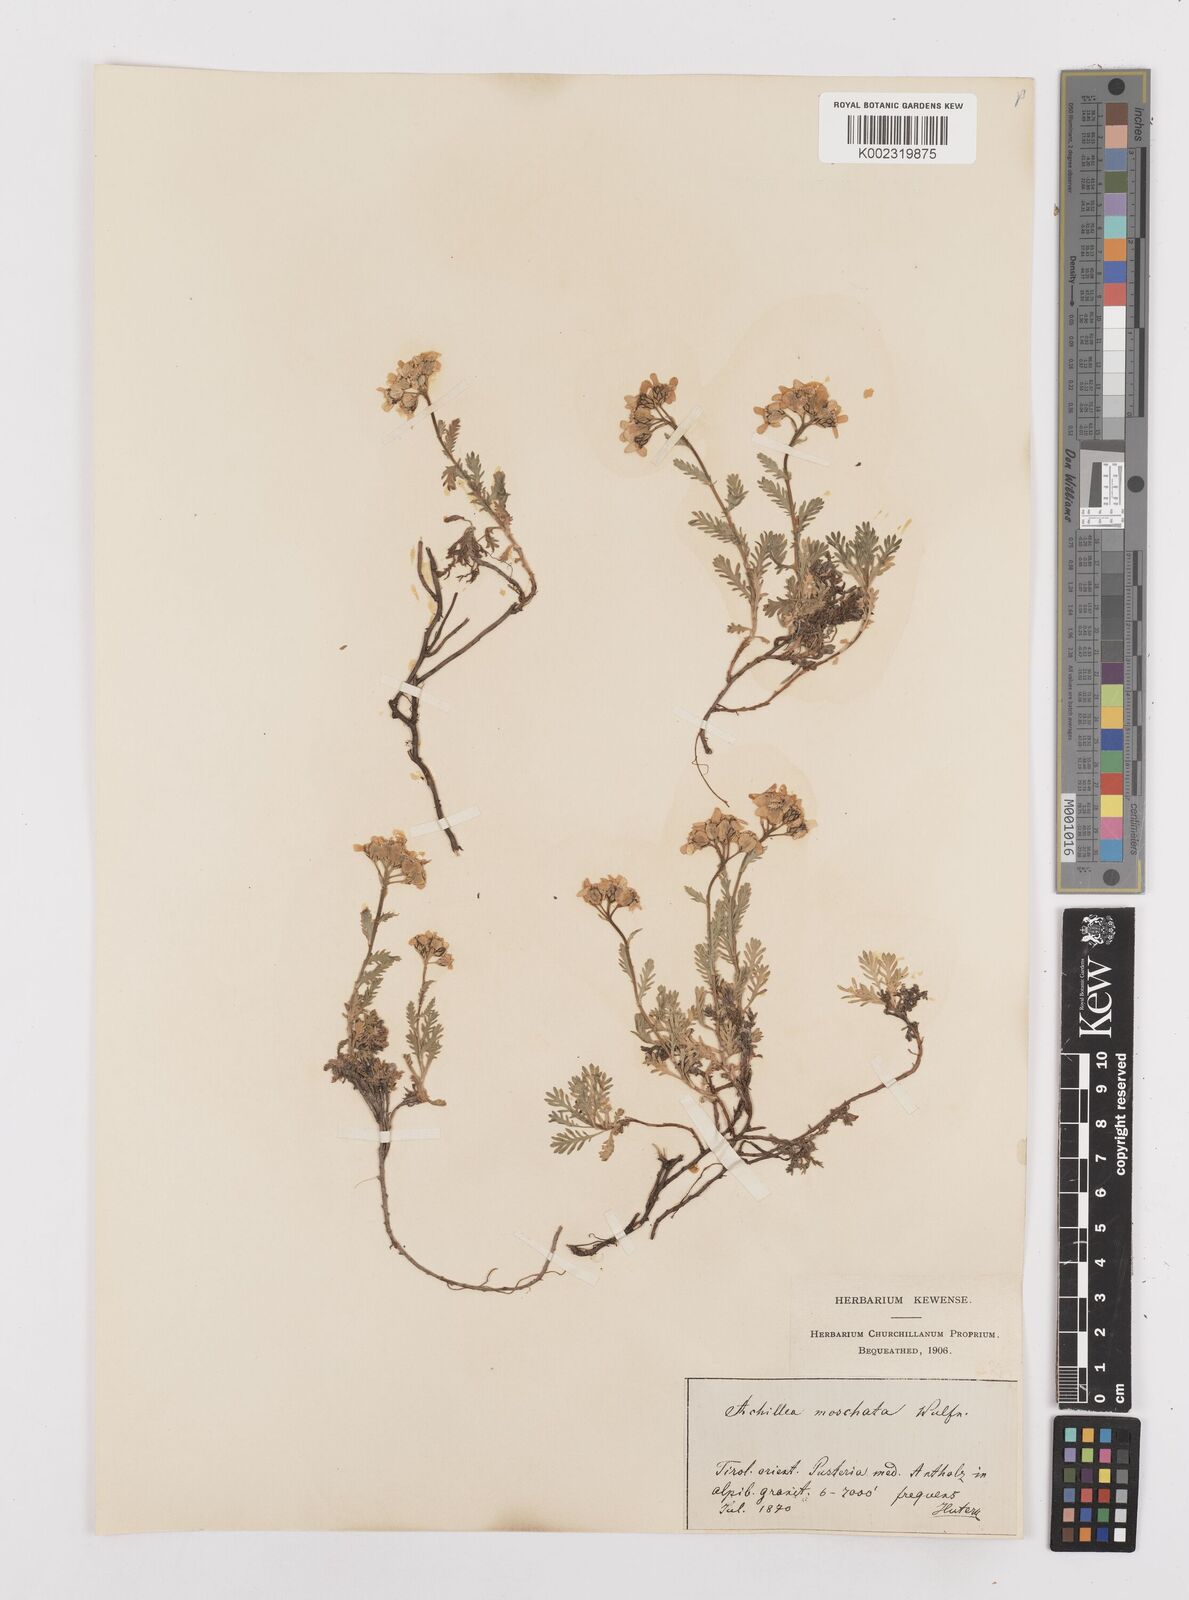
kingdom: Plantae
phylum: Tracheophyta
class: Magnoliopsida
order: Asterales
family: Asteraceae
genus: Achillea
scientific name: Achillea erba-rotta
